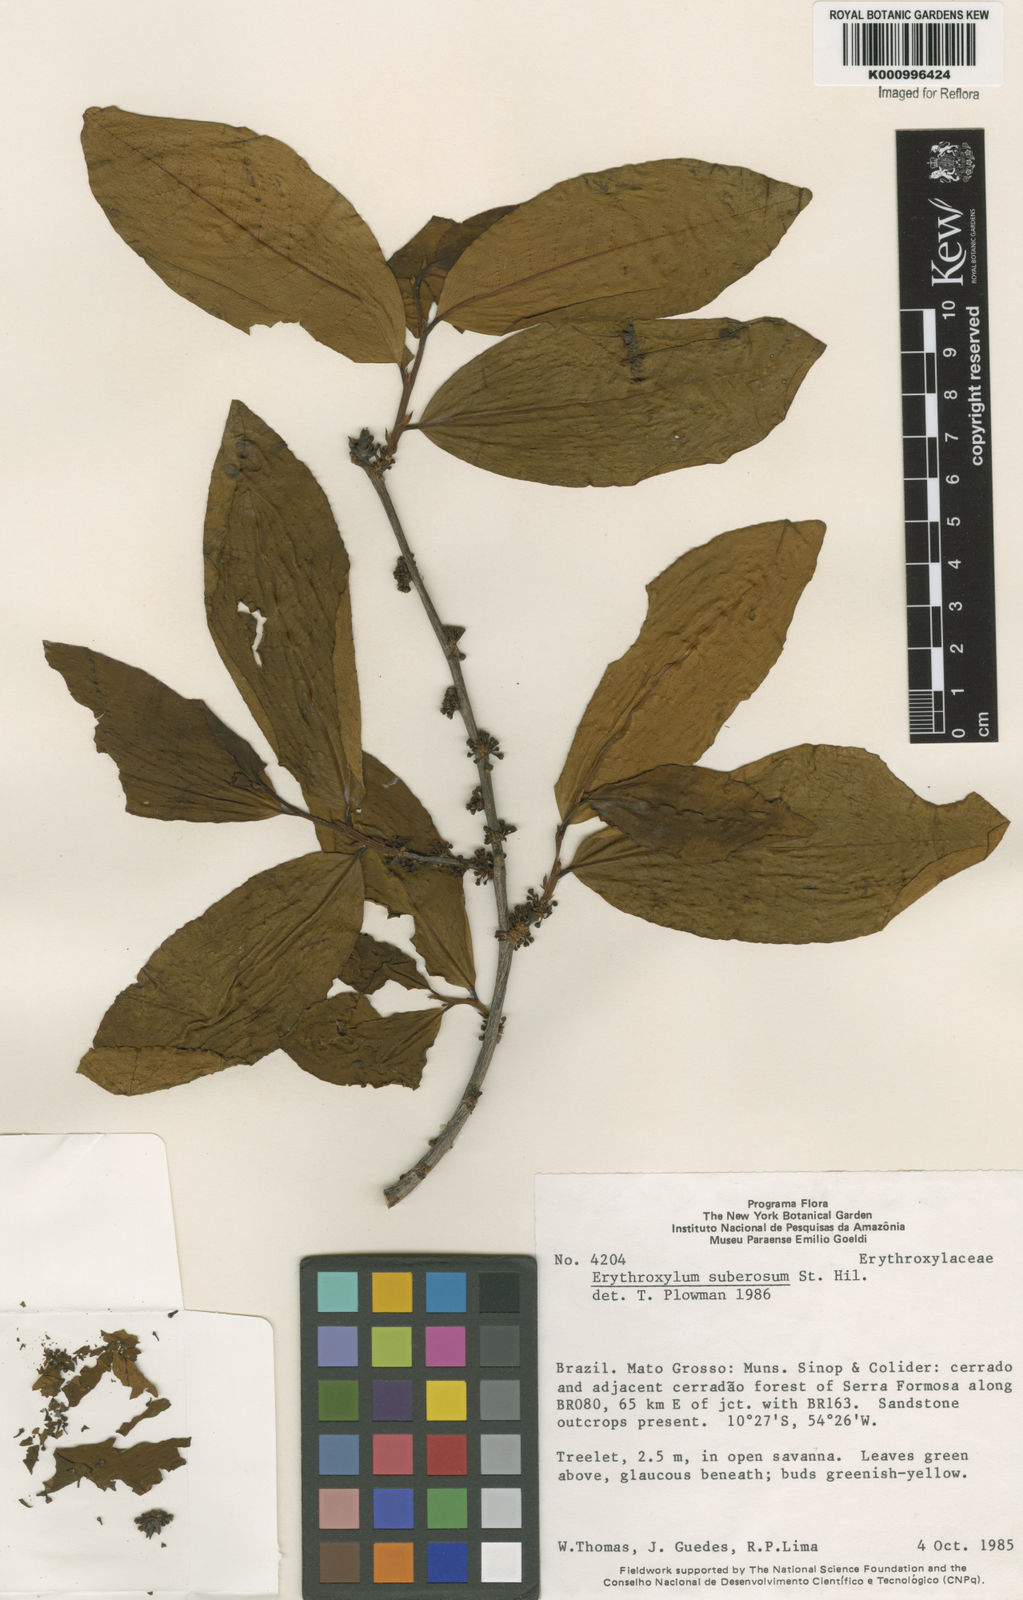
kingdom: Plantae
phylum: Tracheophyta
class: Magnoliopsida
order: Malpighiales
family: Erythroxylaceae
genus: Erythroxylum
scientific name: Erythroxylum suberosum
